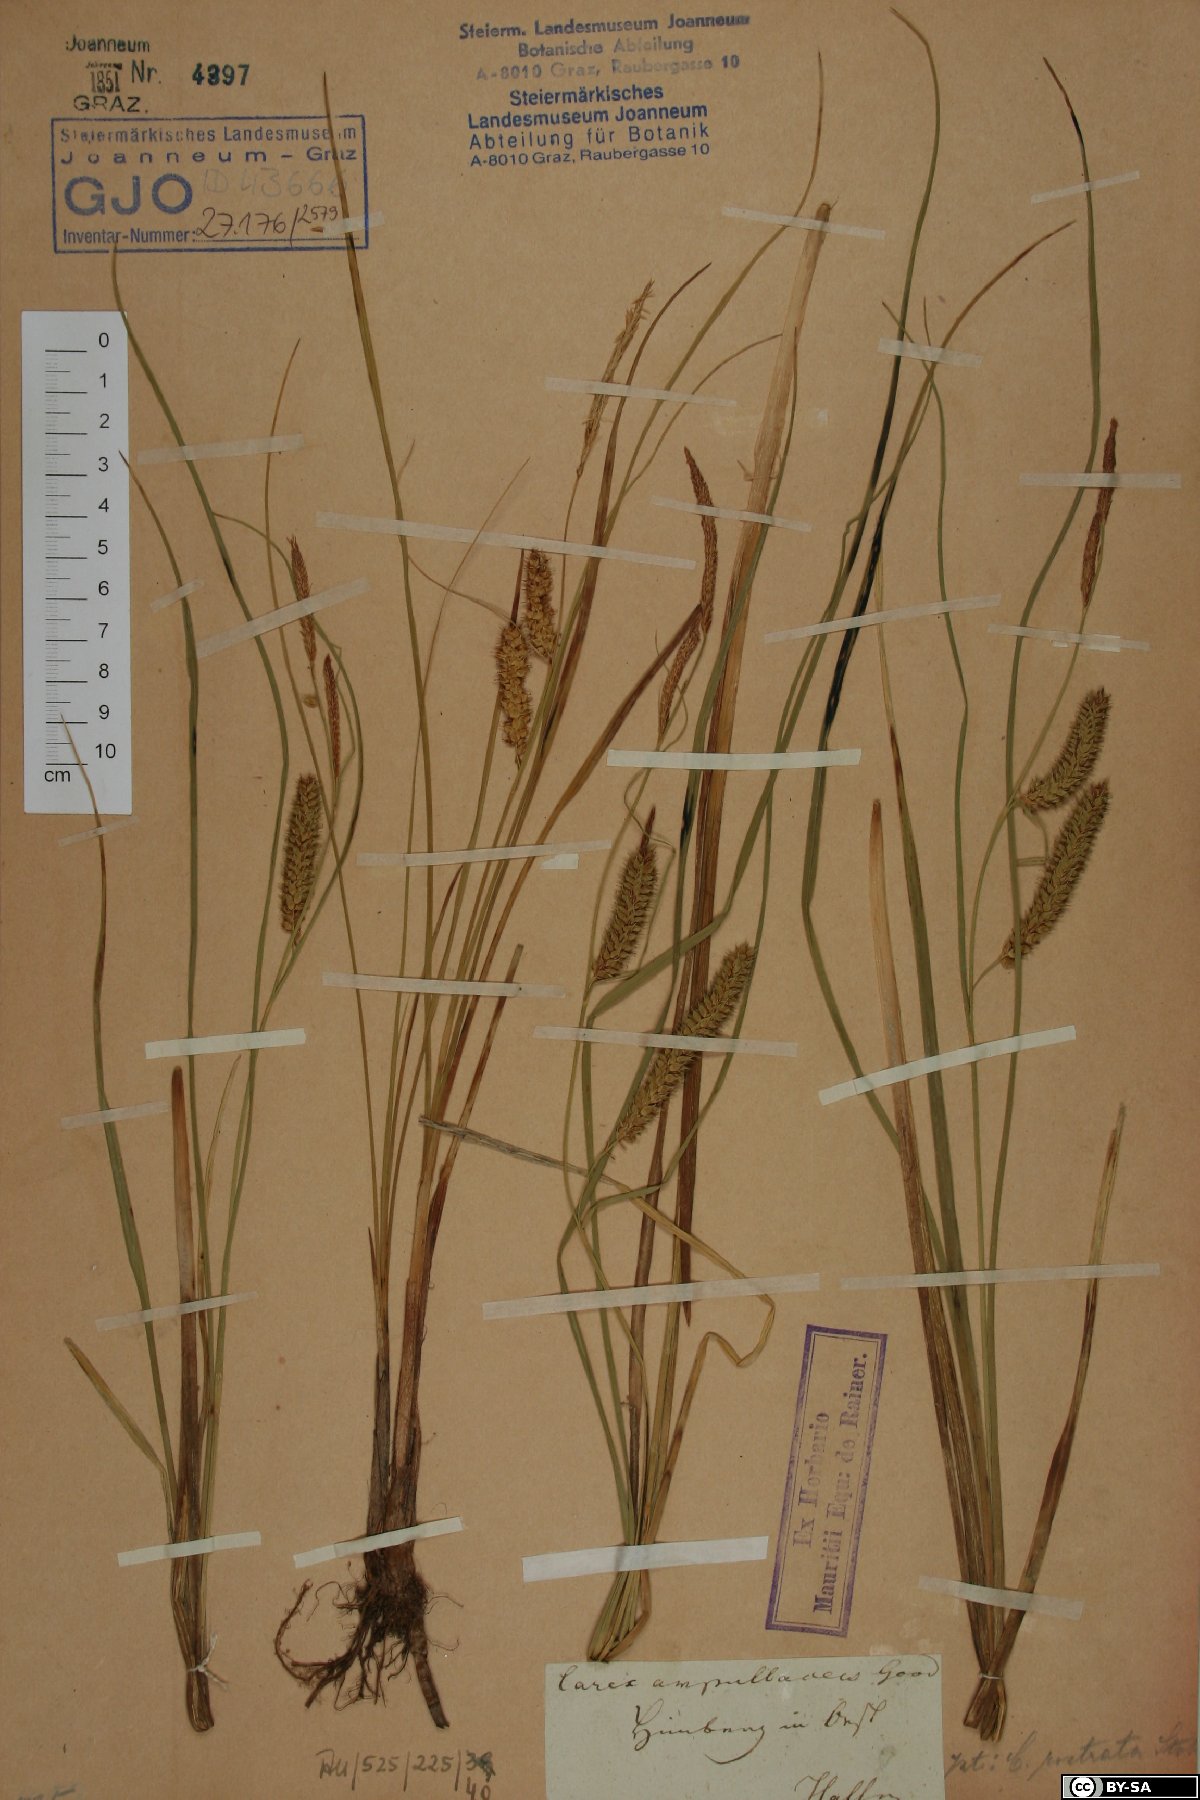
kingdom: Plantae
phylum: Tracheophyta
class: Liliopsida
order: Poales
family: Cyperaceae
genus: Carex
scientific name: Carex rostrata
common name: Bottle sedge
